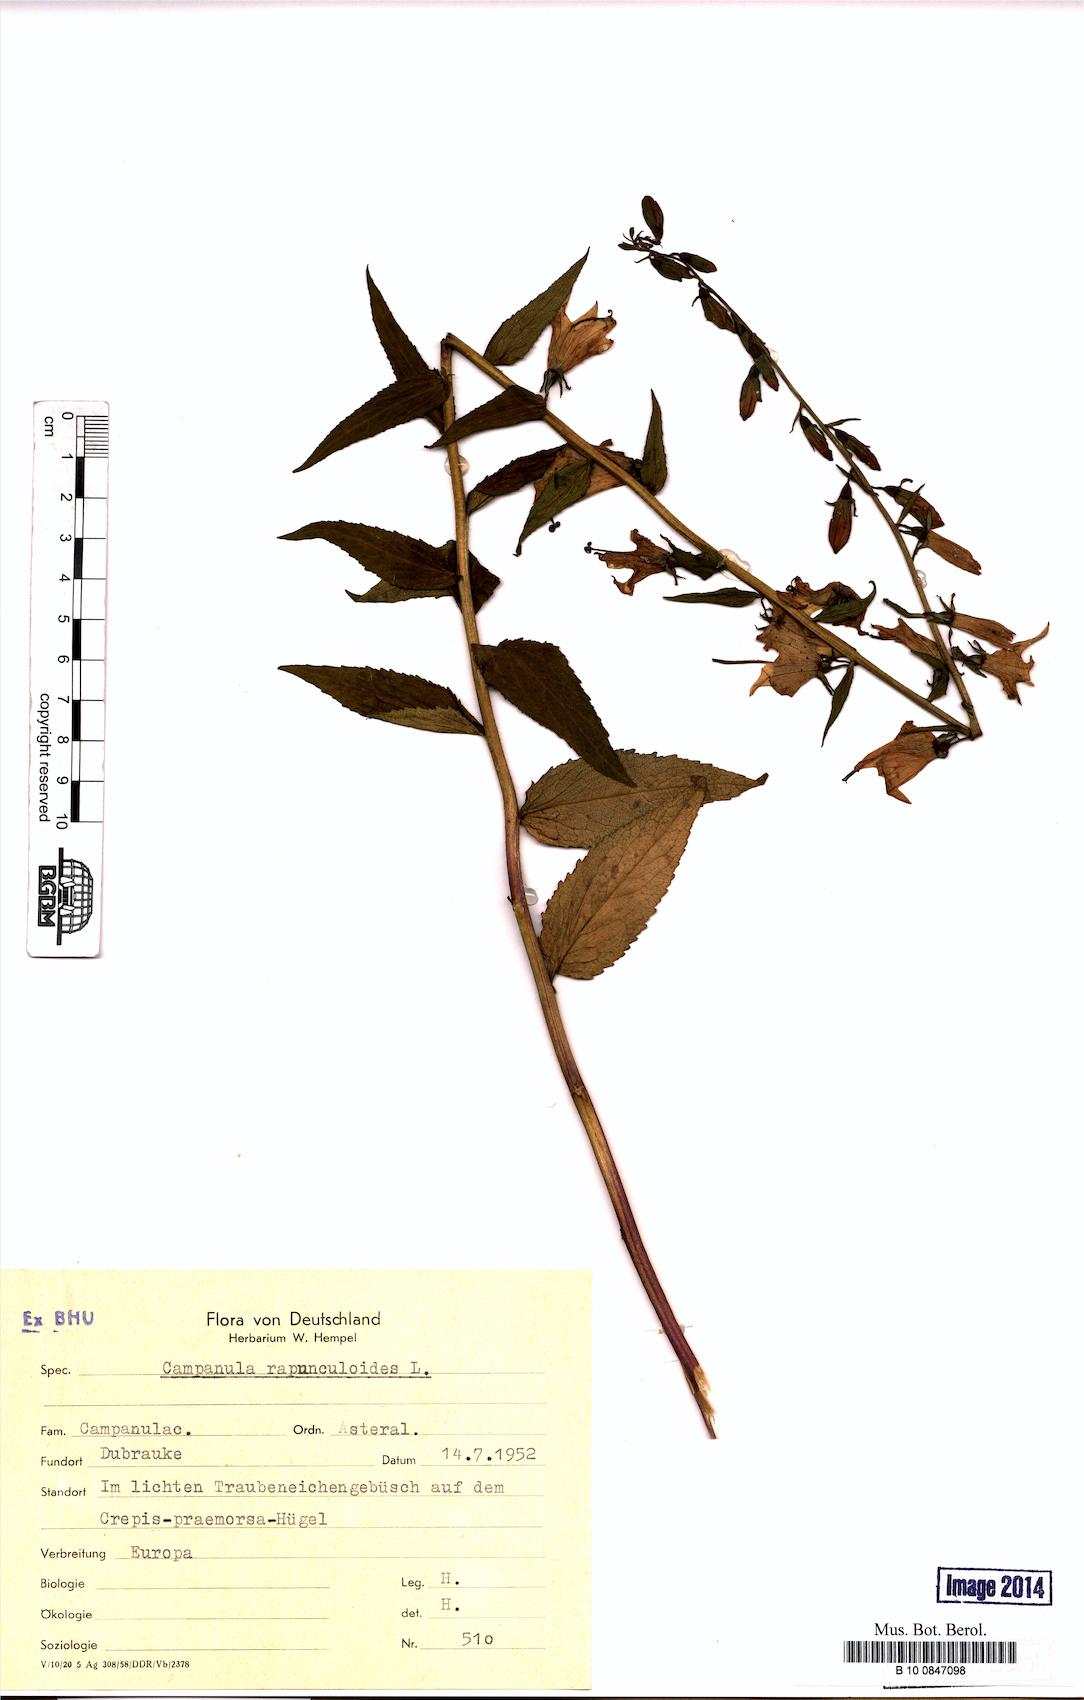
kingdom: Plantae
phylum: Tracheophyta
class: Magnoliopsida
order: Asterales
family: Campanulaceae
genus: Campanula
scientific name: Campanula rapunculoides
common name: Creeping bellflower
